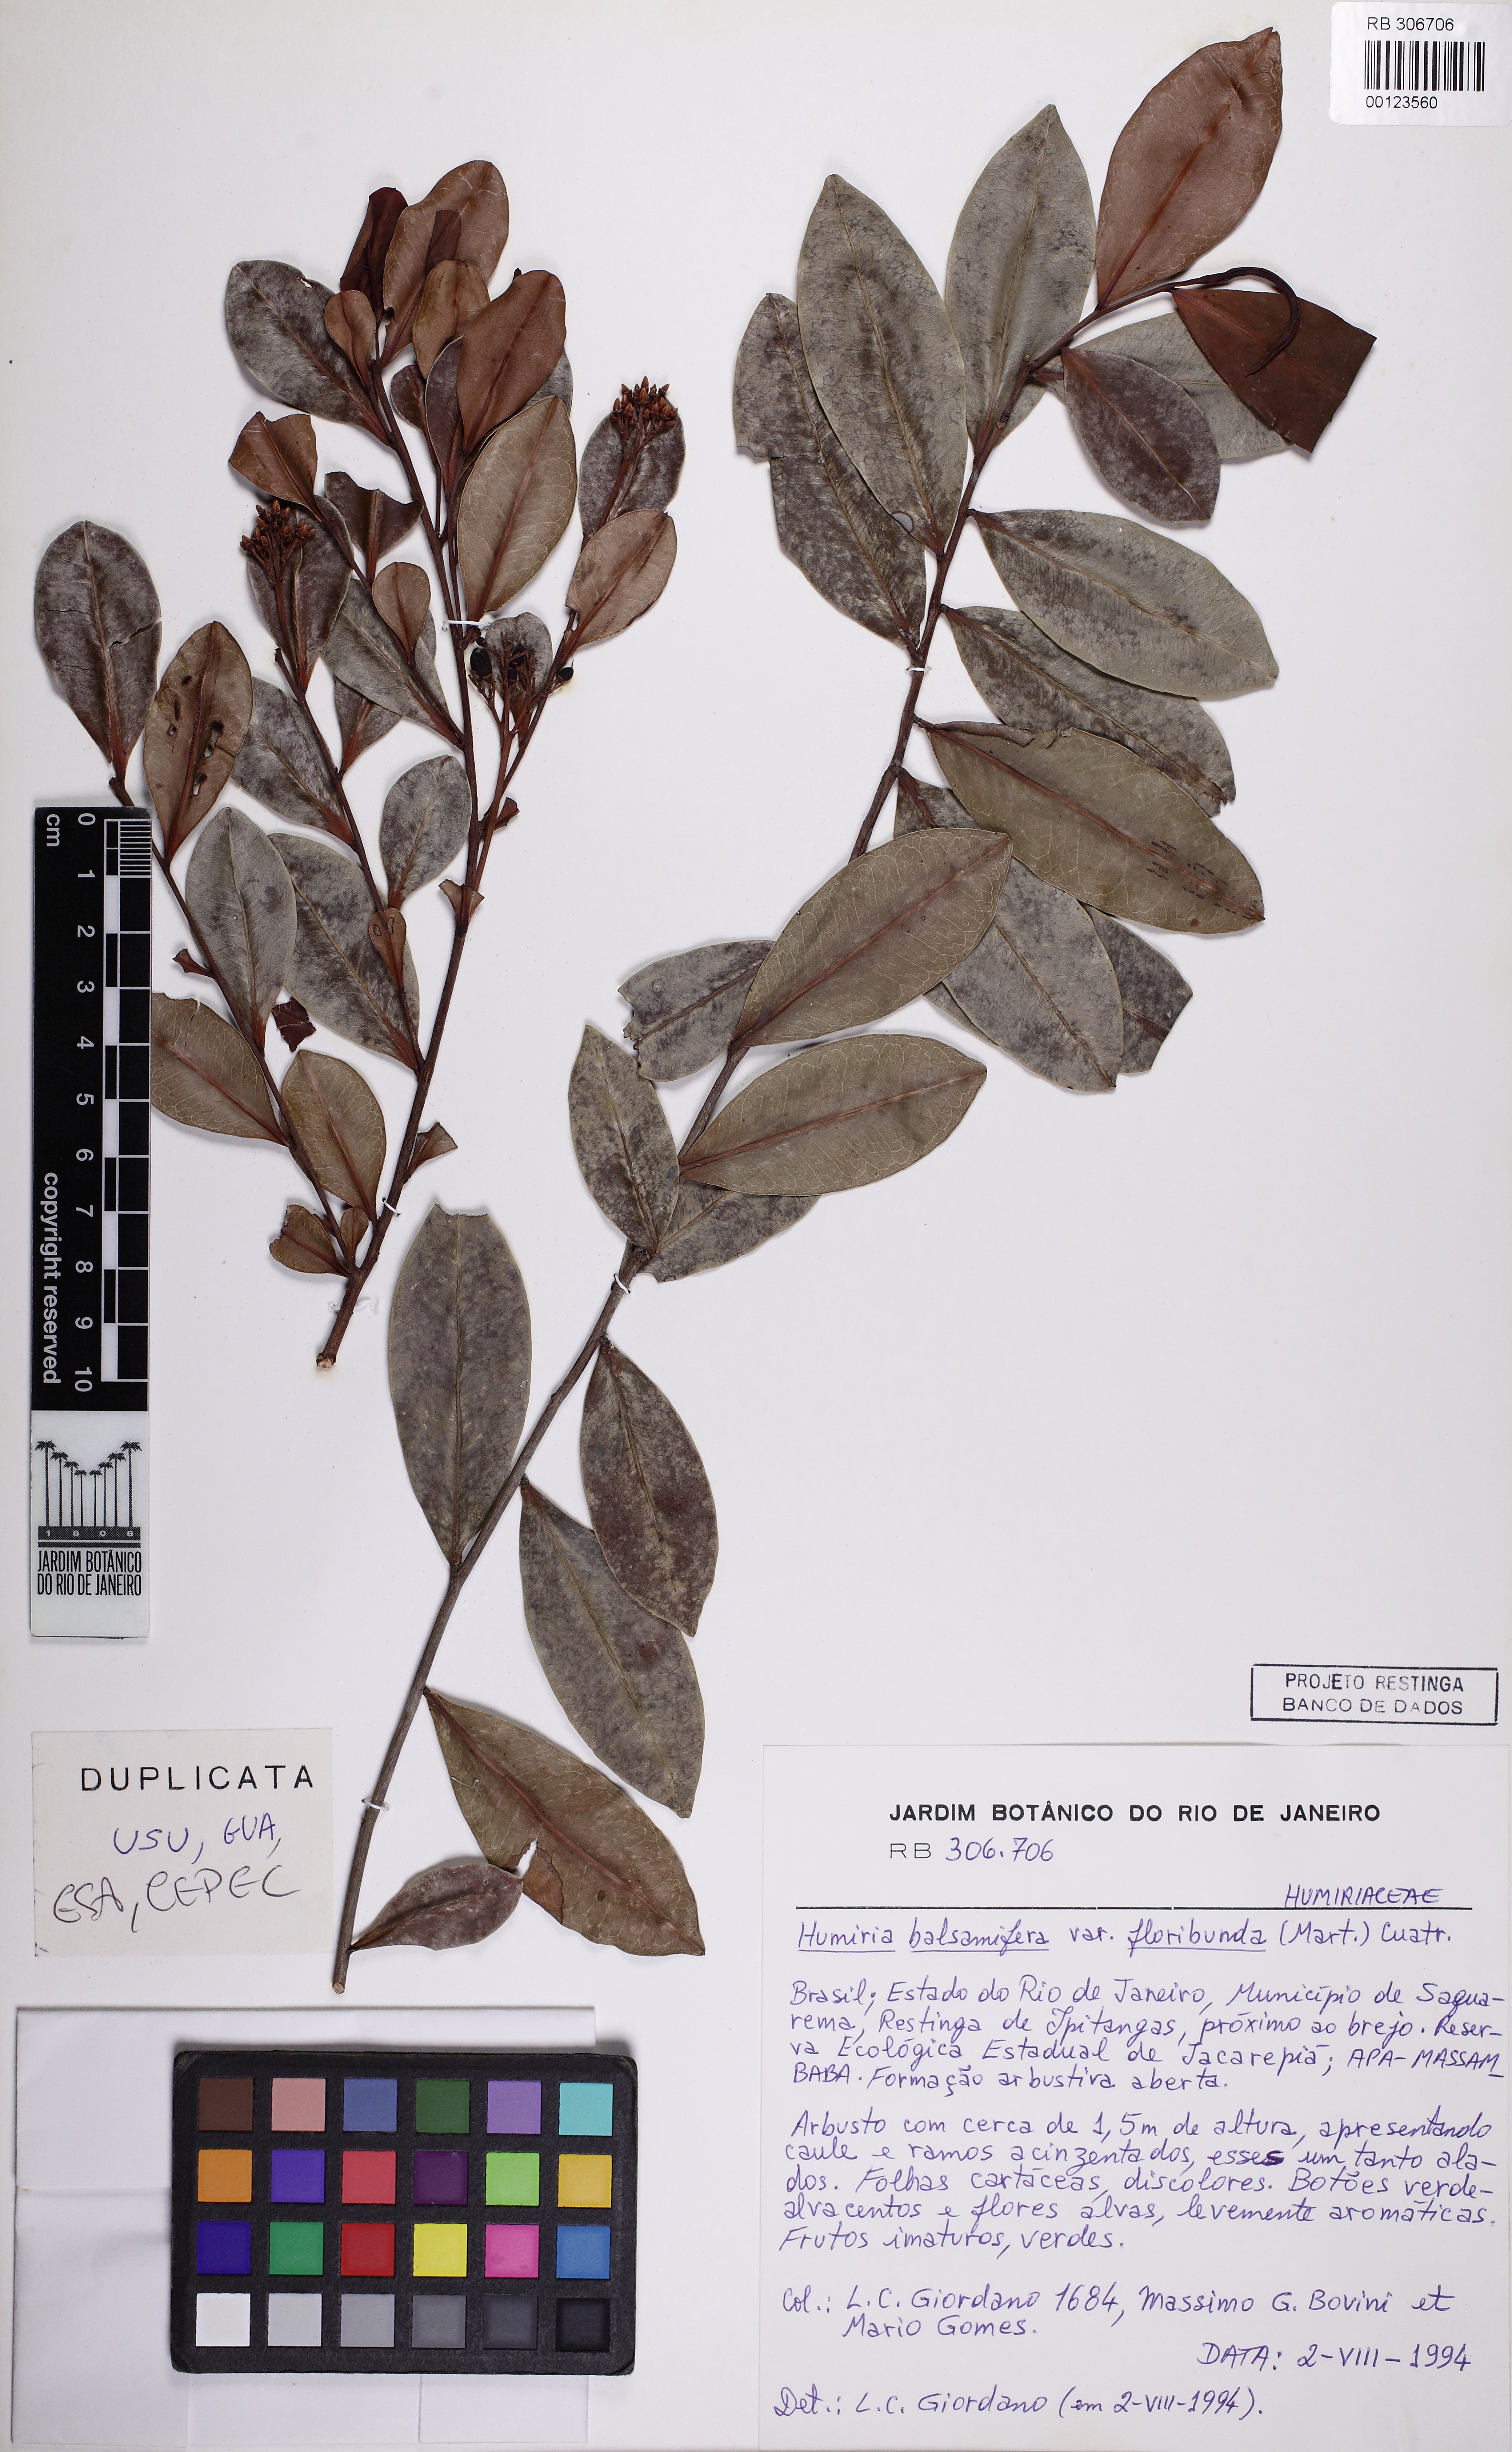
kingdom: Plantae
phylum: Tracheophyta
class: Magnoliopsida
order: Malpighiales
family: Humiriaceae
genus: Humiria
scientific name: Humiria balsamifera
